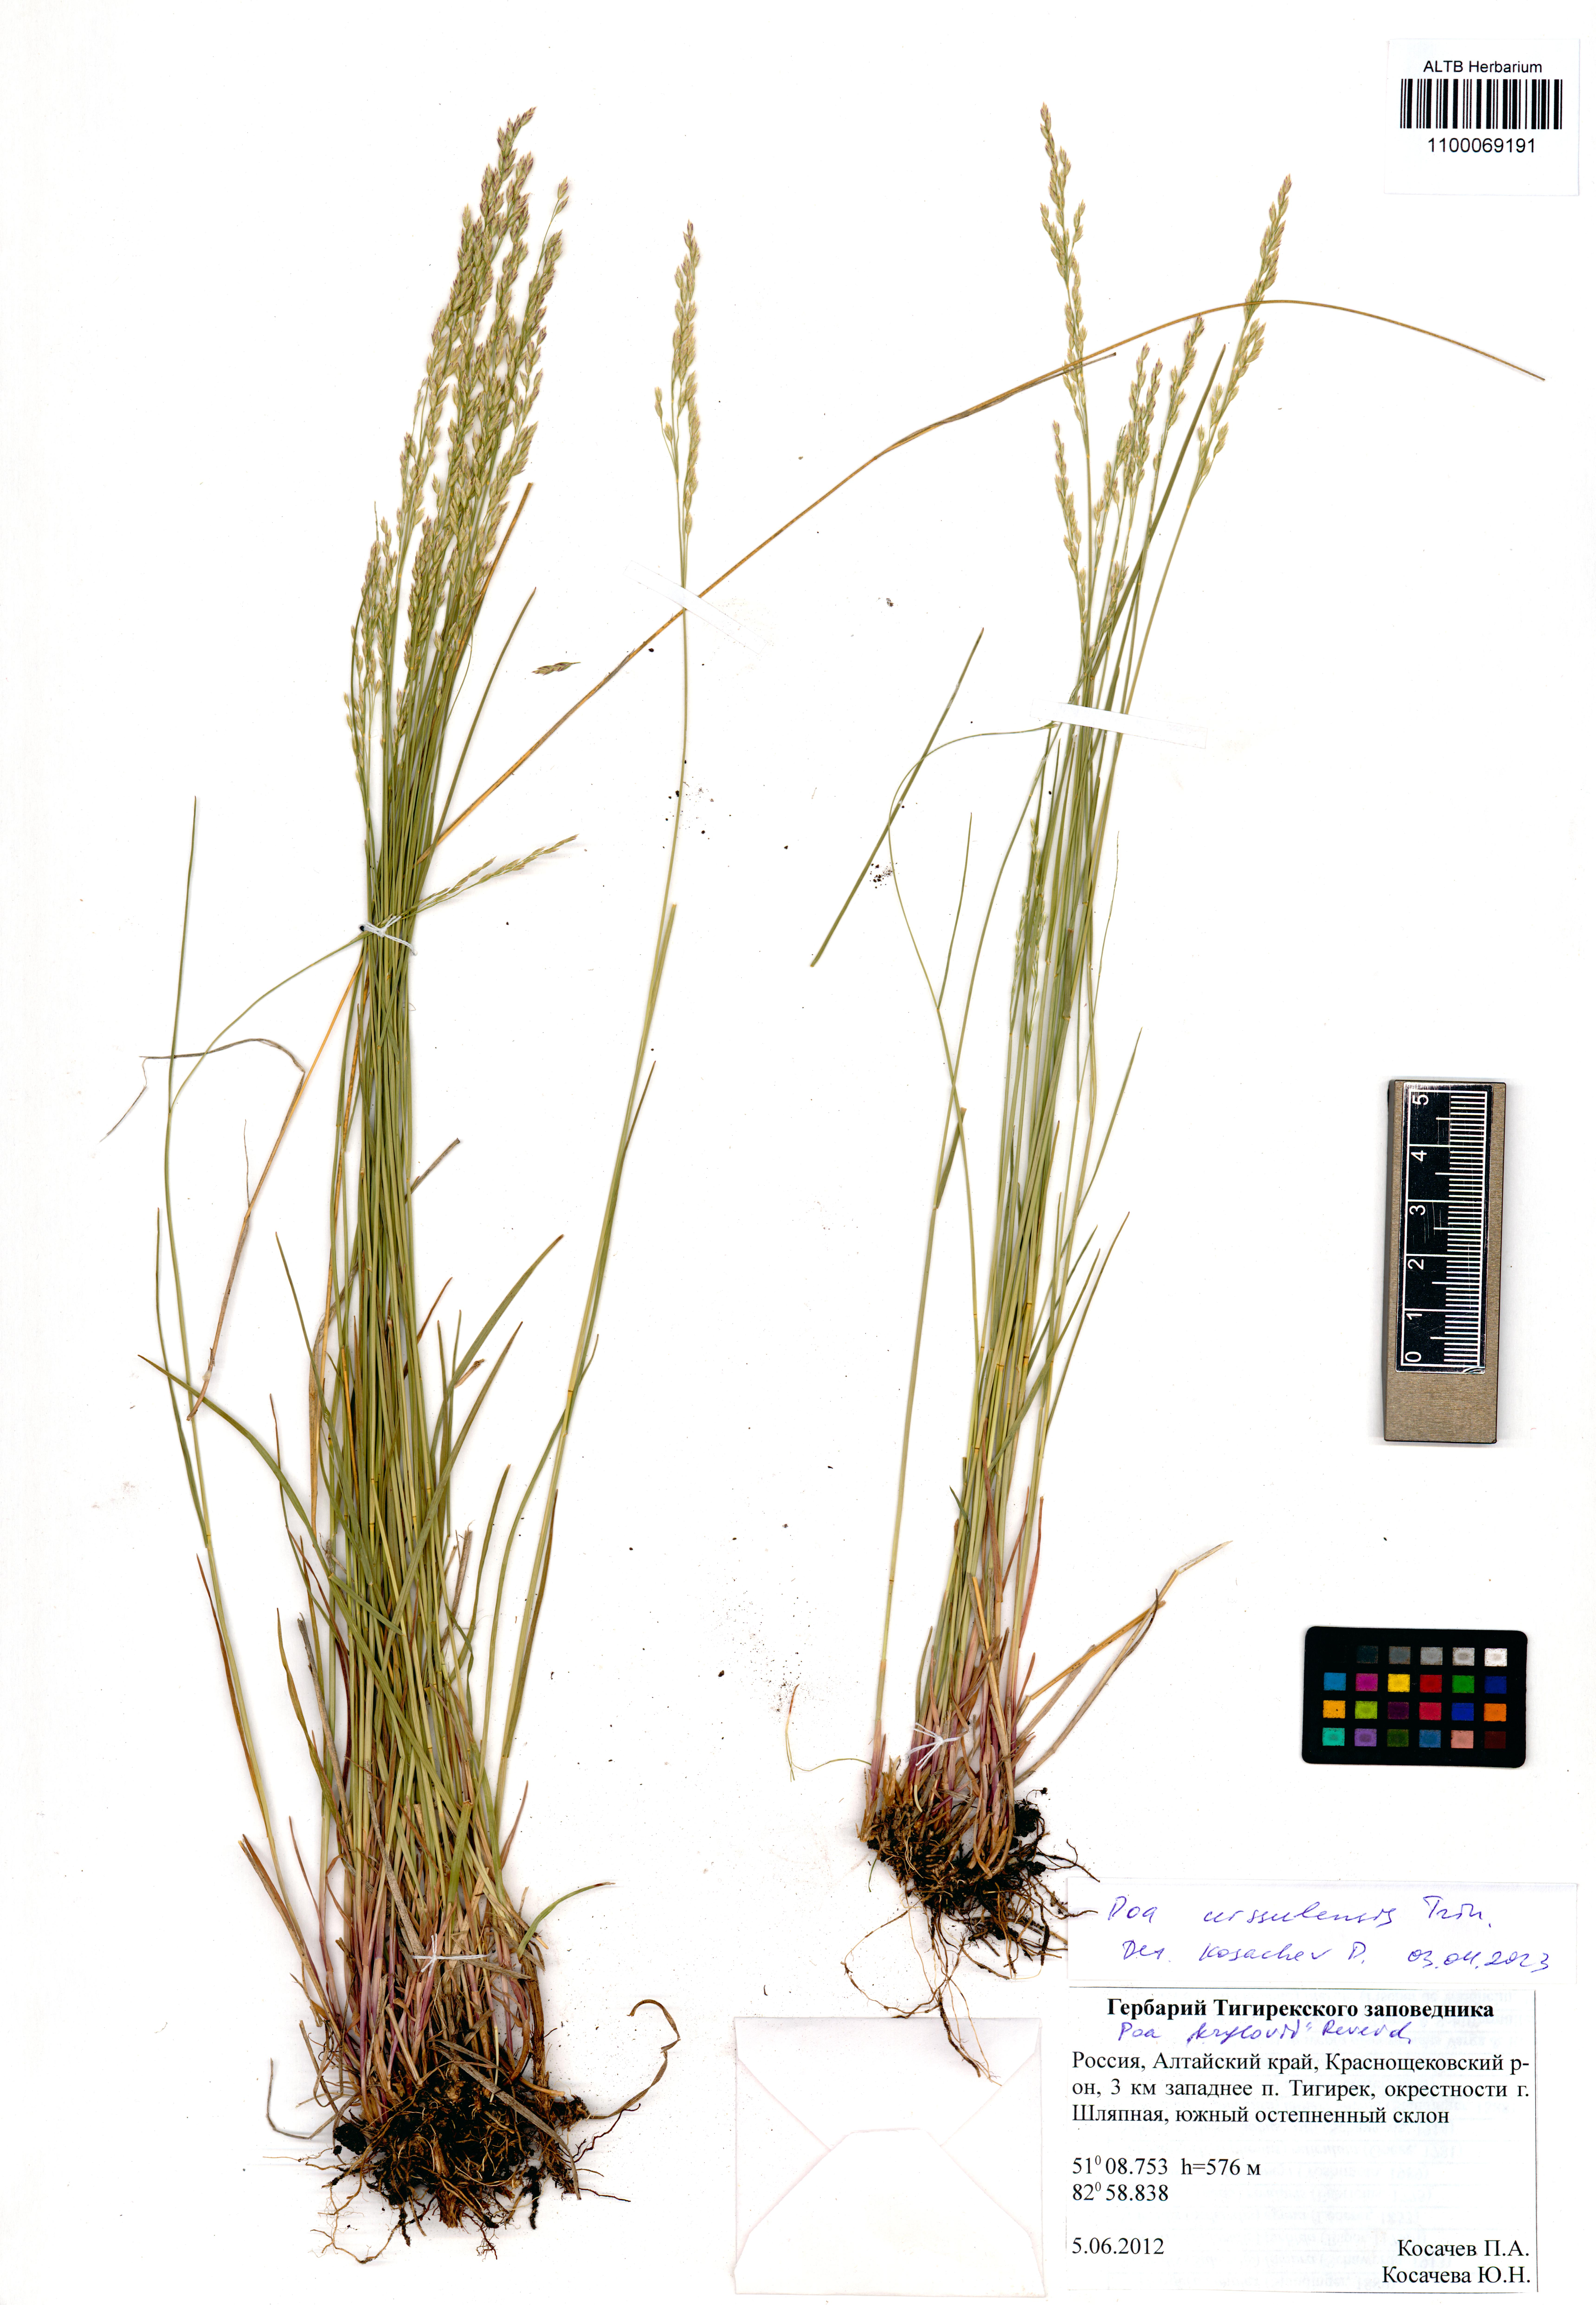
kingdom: Plantae
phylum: Tracheophyta
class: Liliopsida
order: Poales
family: Poaceae
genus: Poa
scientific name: Poa urssulensis
